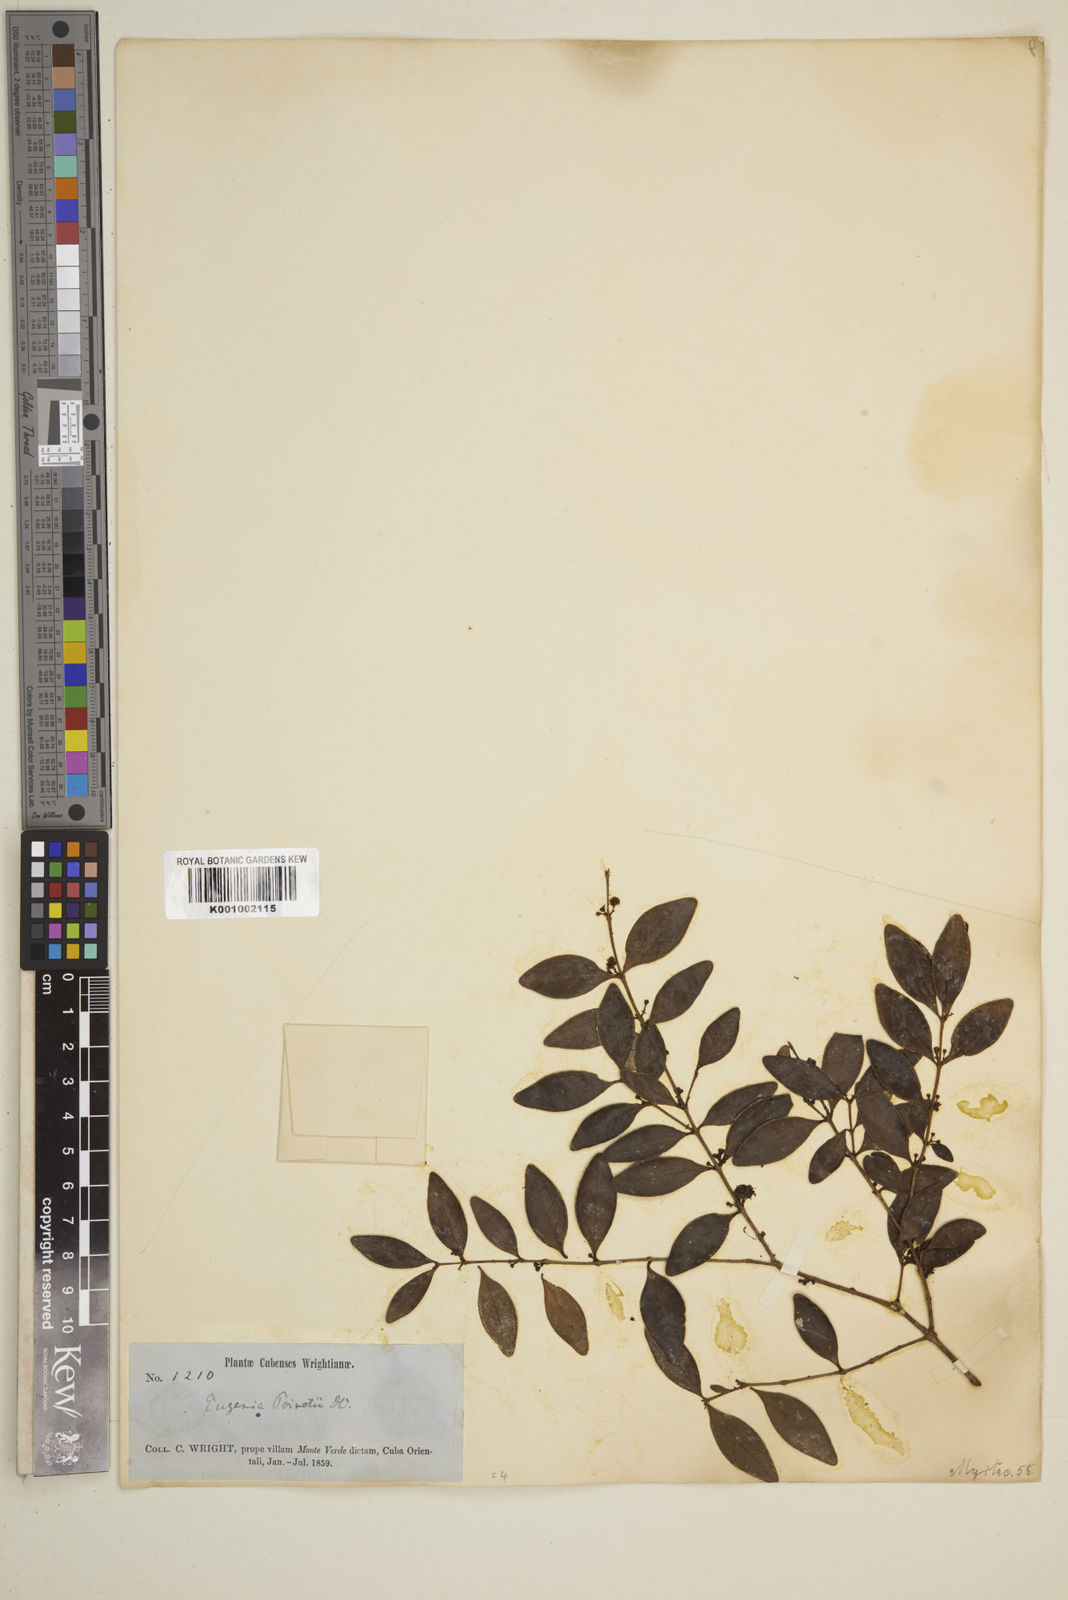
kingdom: Plantae
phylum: Tracheophyta
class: Magnoliopsida
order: Myrtales
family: Myrtaceae
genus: Eugenia
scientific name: Eugenia monticola
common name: Birds berry
